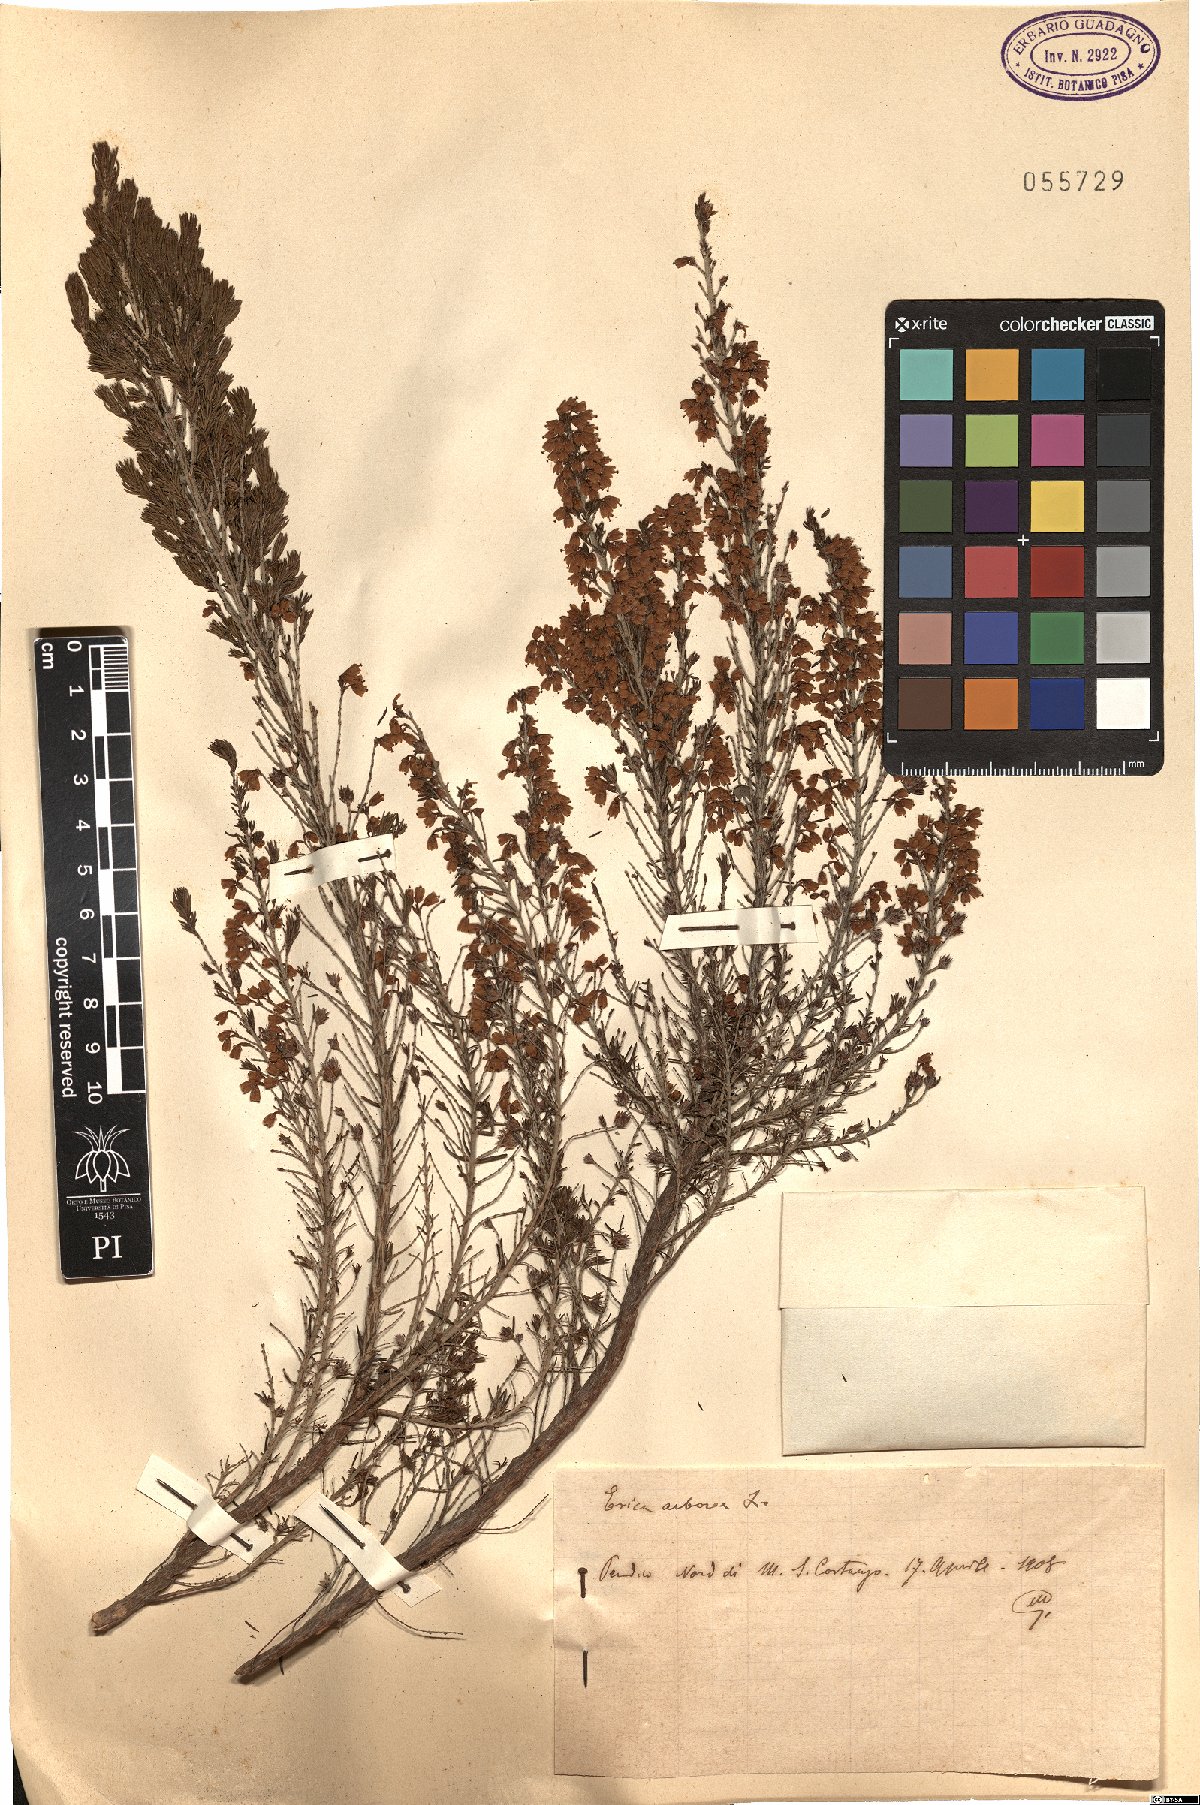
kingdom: Plantae
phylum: Tracheophyta
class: Magnoliopsida
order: Ericales
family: Ericaceae
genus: Erica
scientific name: Erica arborea
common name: Tree heath
